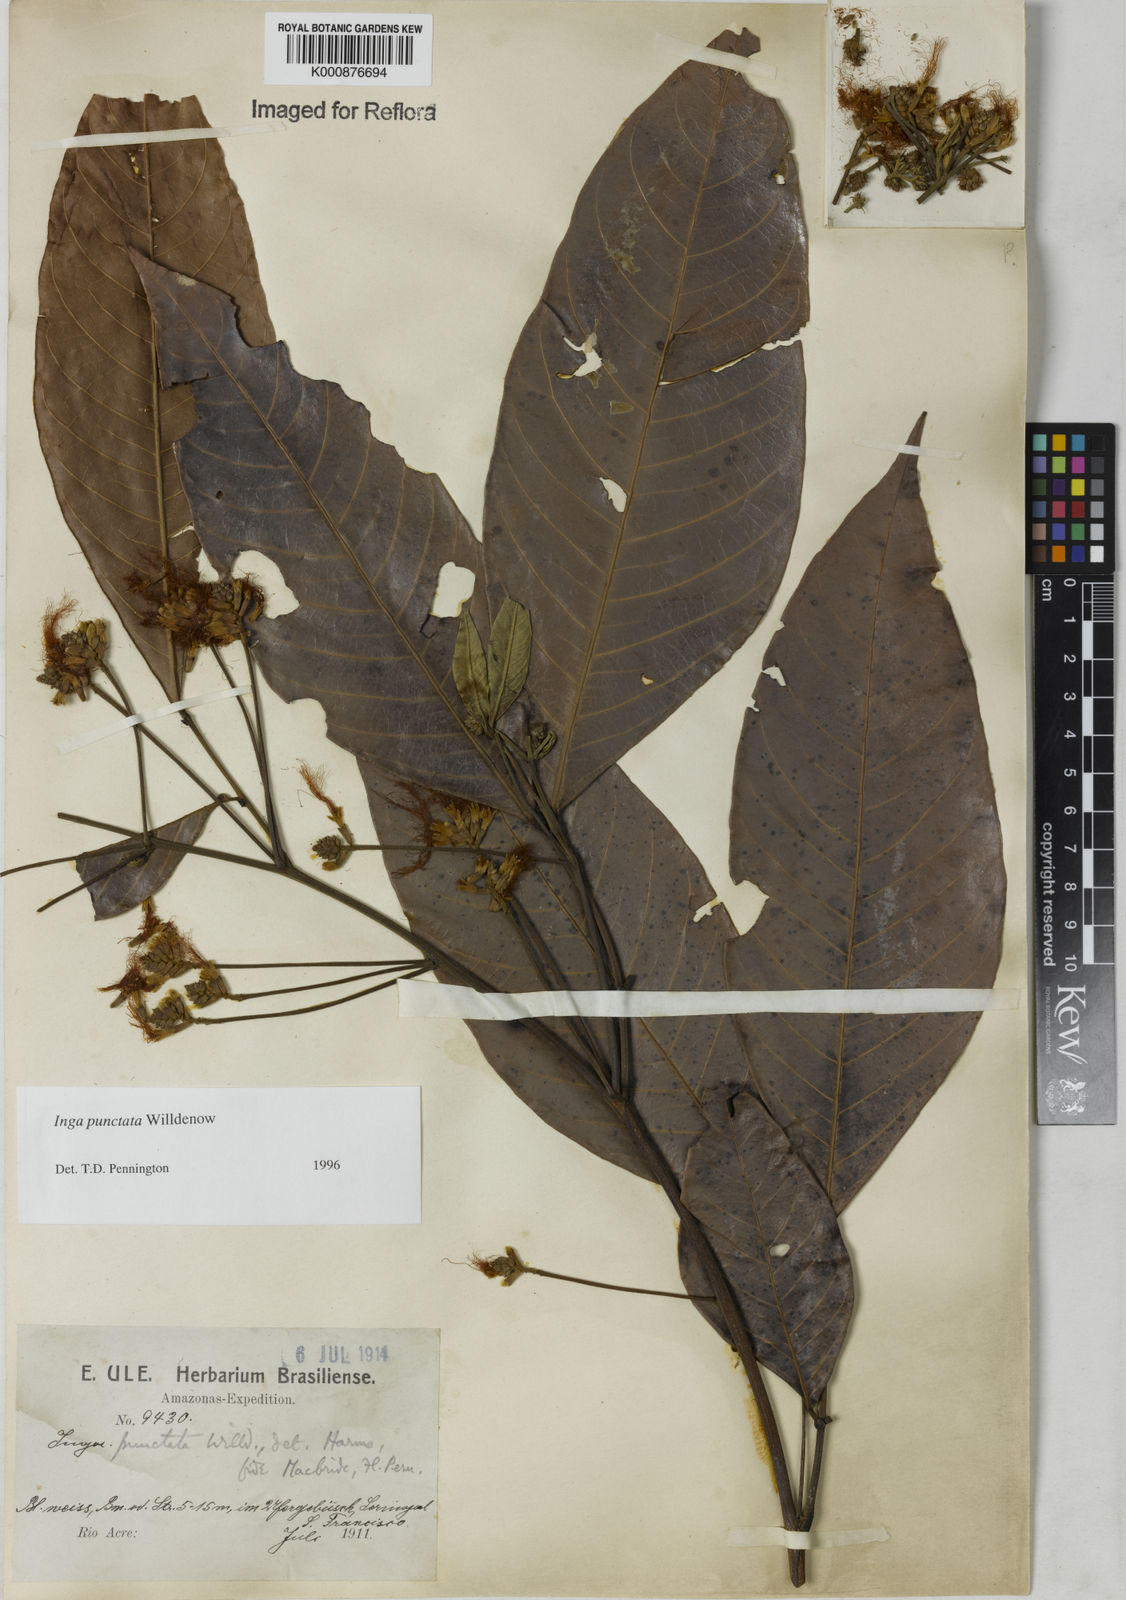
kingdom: Plantae
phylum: Tracheophyta
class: Magnoliopsida
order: Fabales
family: Fabaceae
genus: Inga
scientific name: Inga punctata
